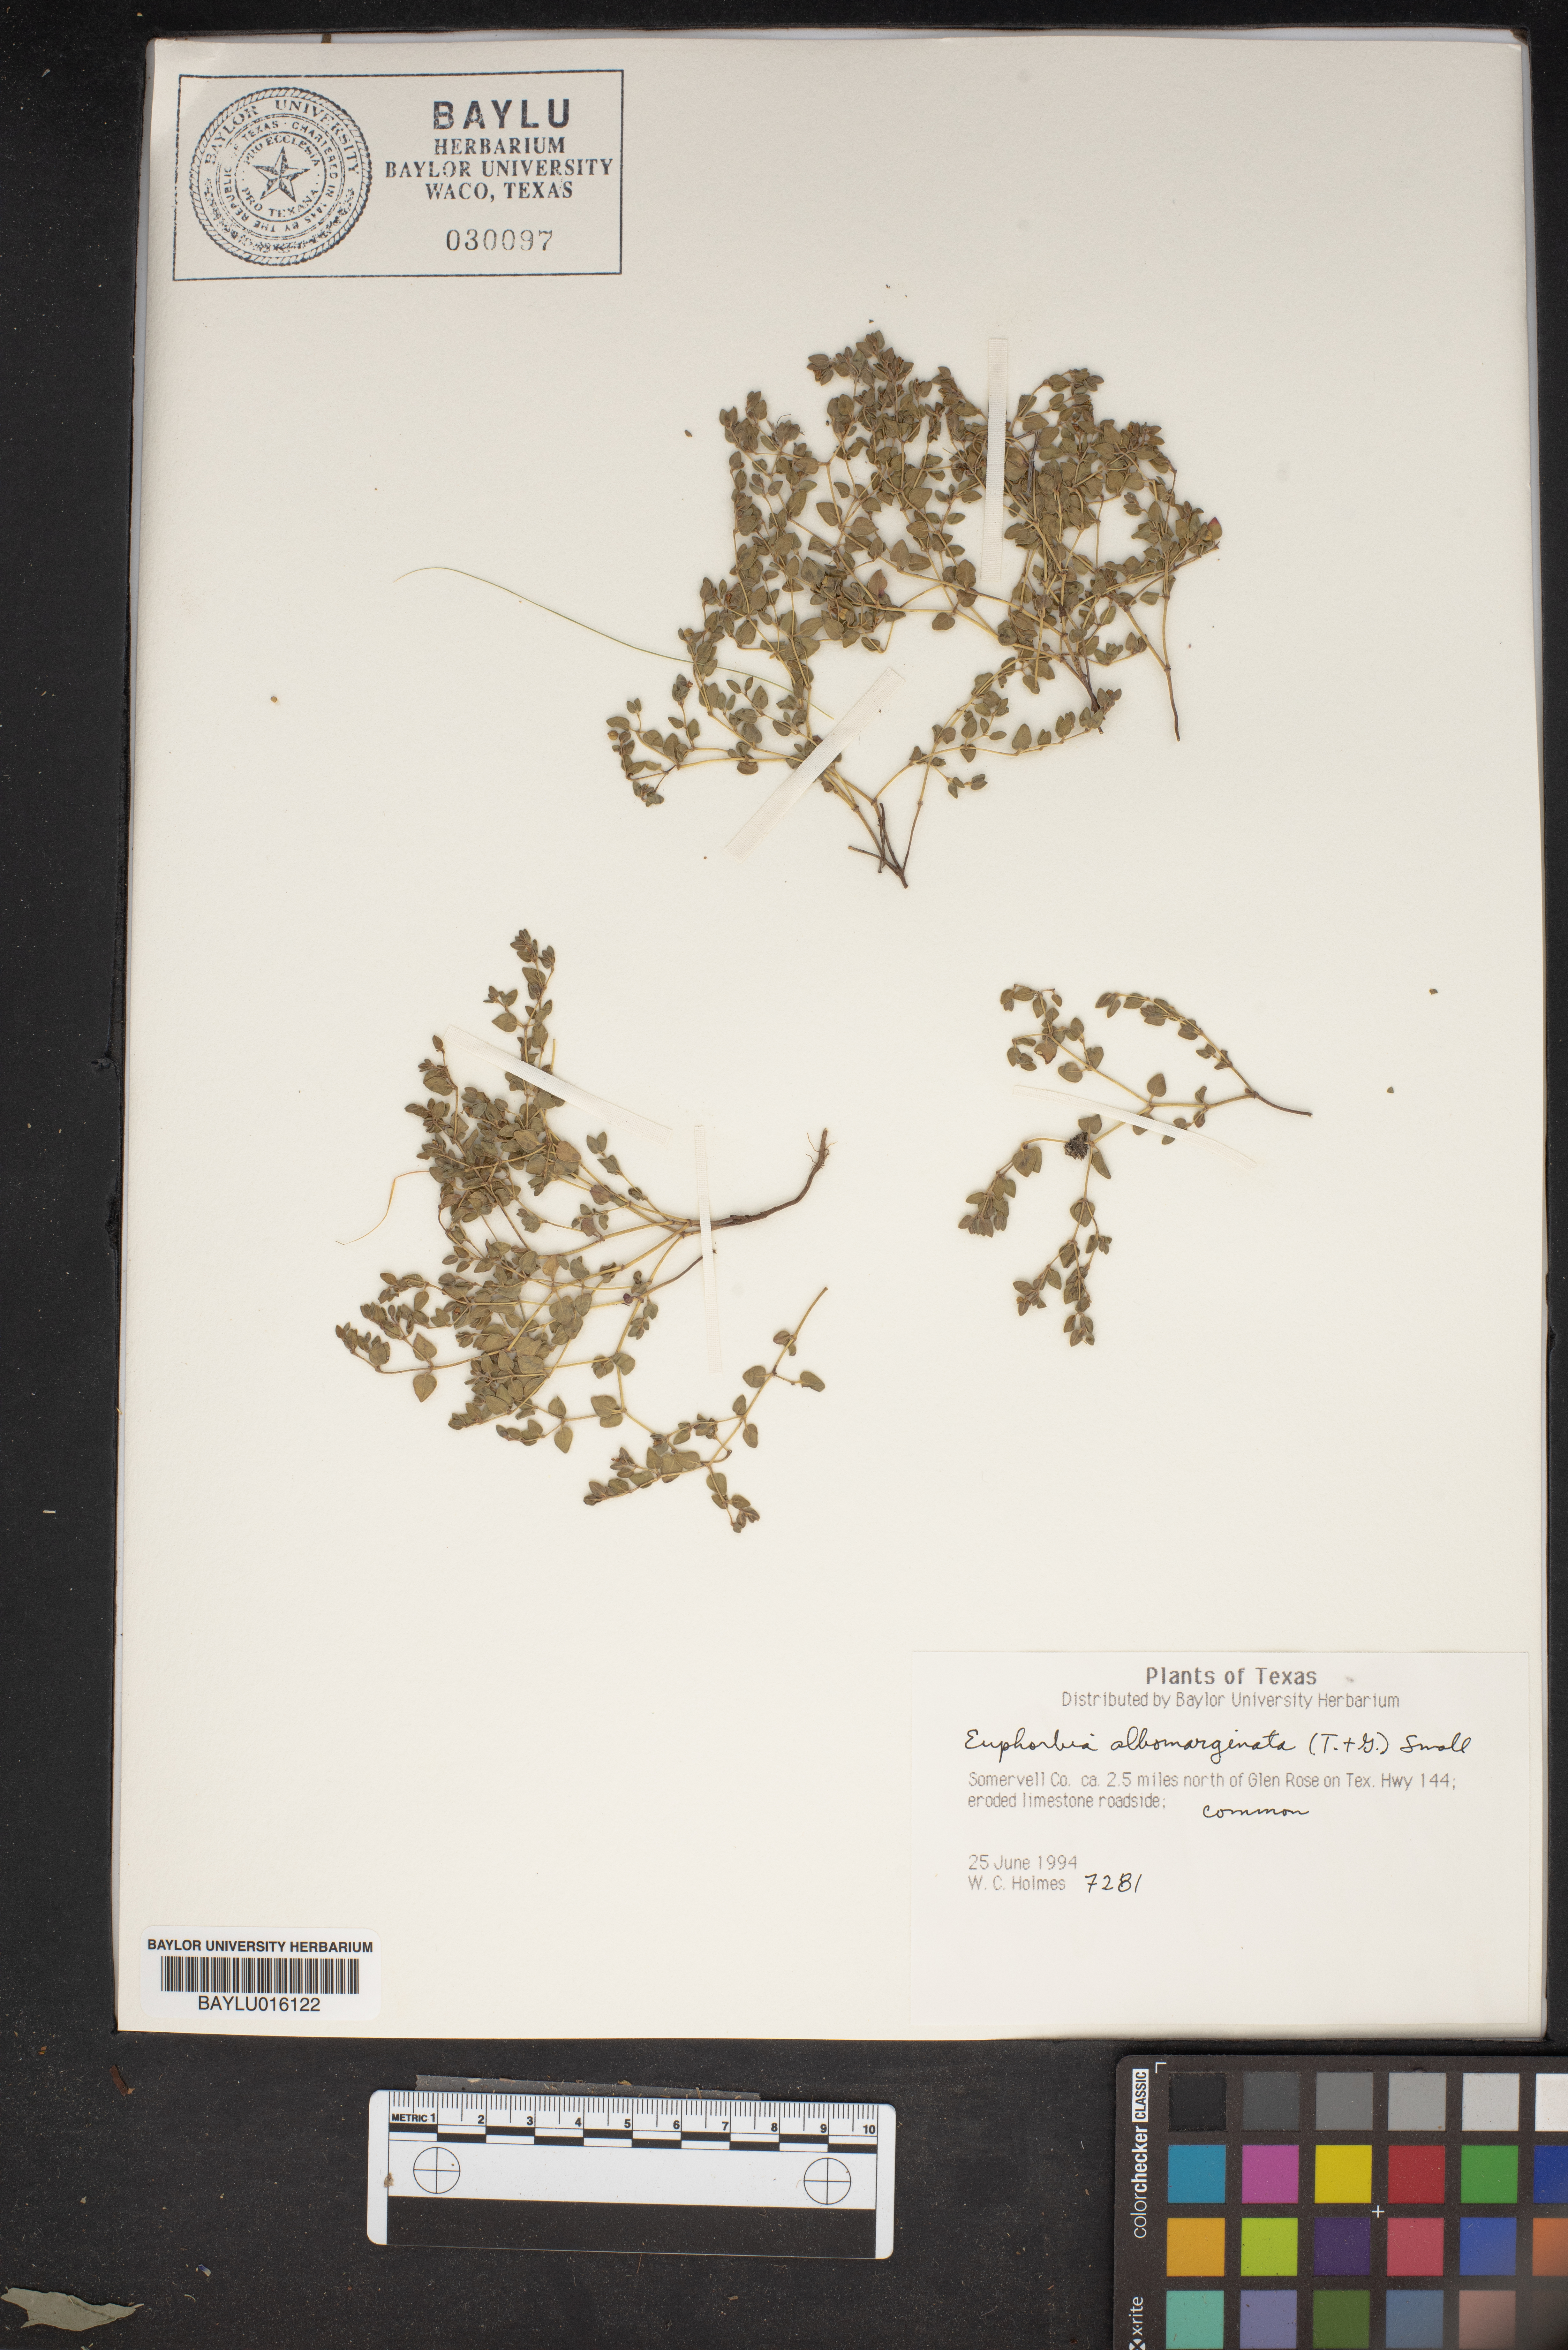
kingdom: Plantae
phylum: Tracheophyta
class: Magnoliopsida
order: Malpighiales
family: Euphorbiaceae
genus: Euphorbia
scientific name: Euphorbia albomarginata
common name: Whitemargin sandmat
